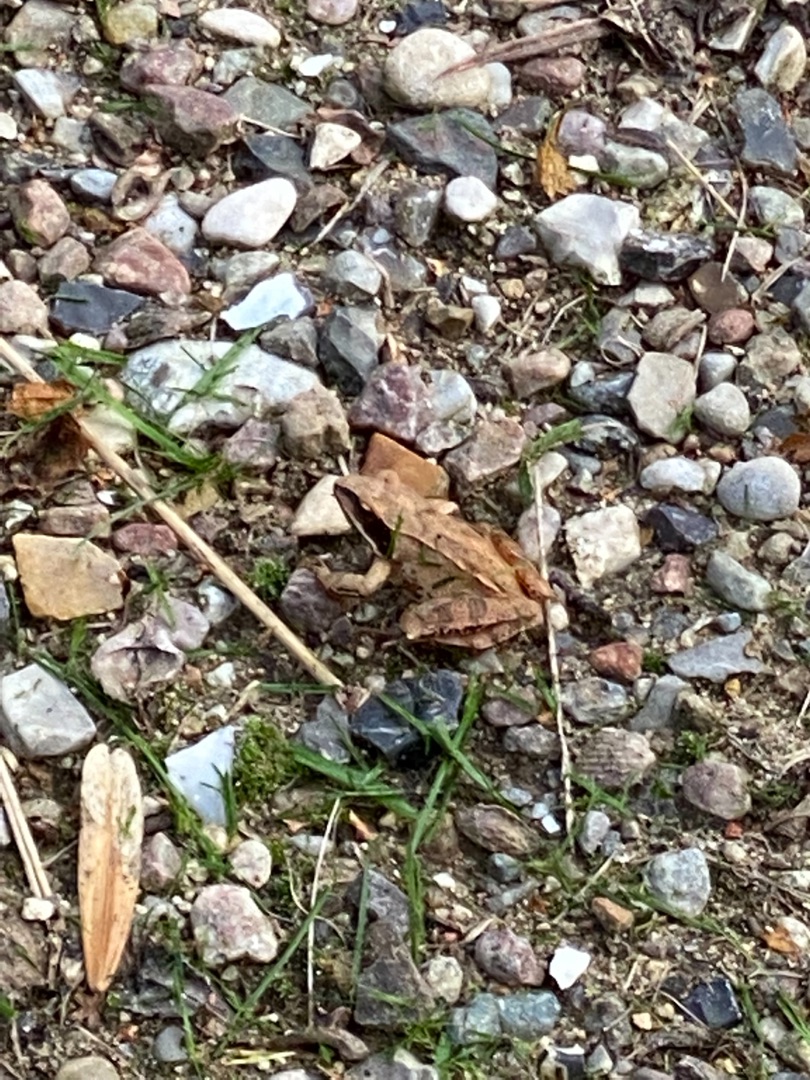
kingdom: Animalia
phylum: Chordata
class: Amphibia
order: Anura
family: Ranidae
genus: Rana
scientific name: Rana dalmatina
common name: Springfrø
